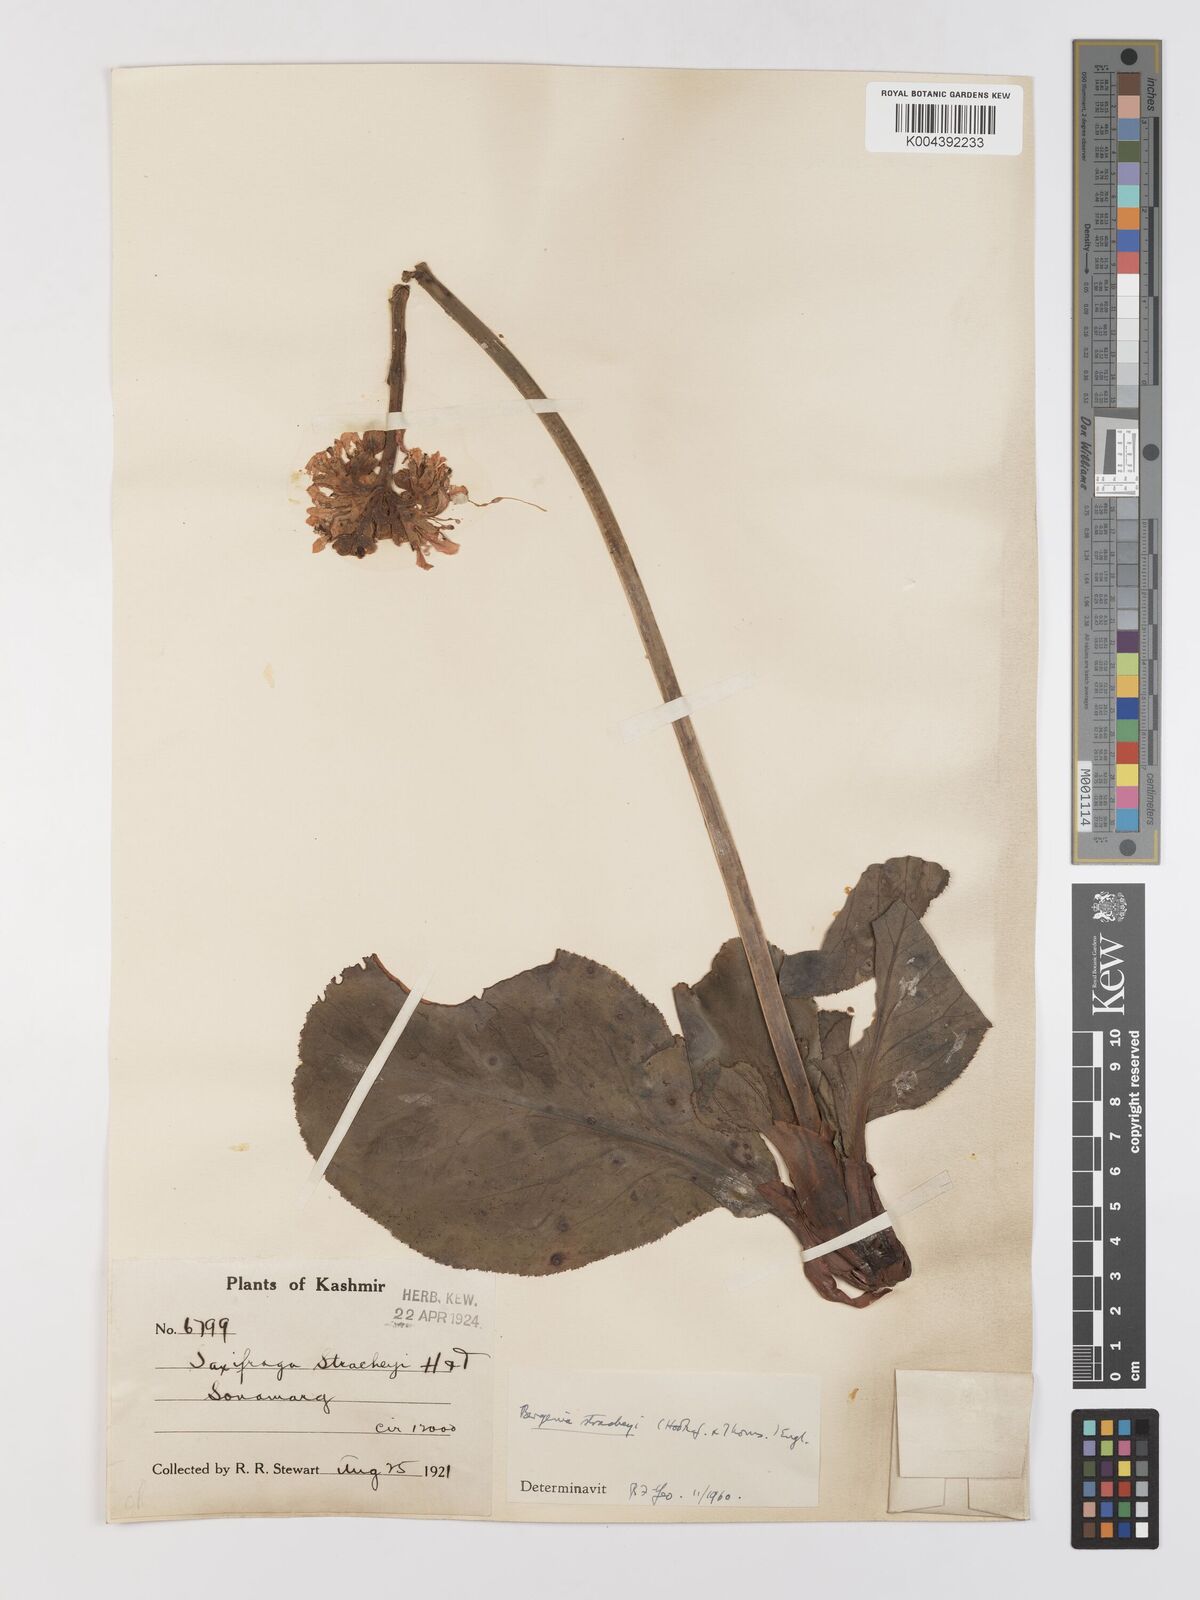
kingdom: Plantae
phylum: Tracheophyta
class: Magnoliopsida
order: Saxifragales
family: Saxifragaceae
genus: Bergenia
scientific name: Bergenia stracheyi
